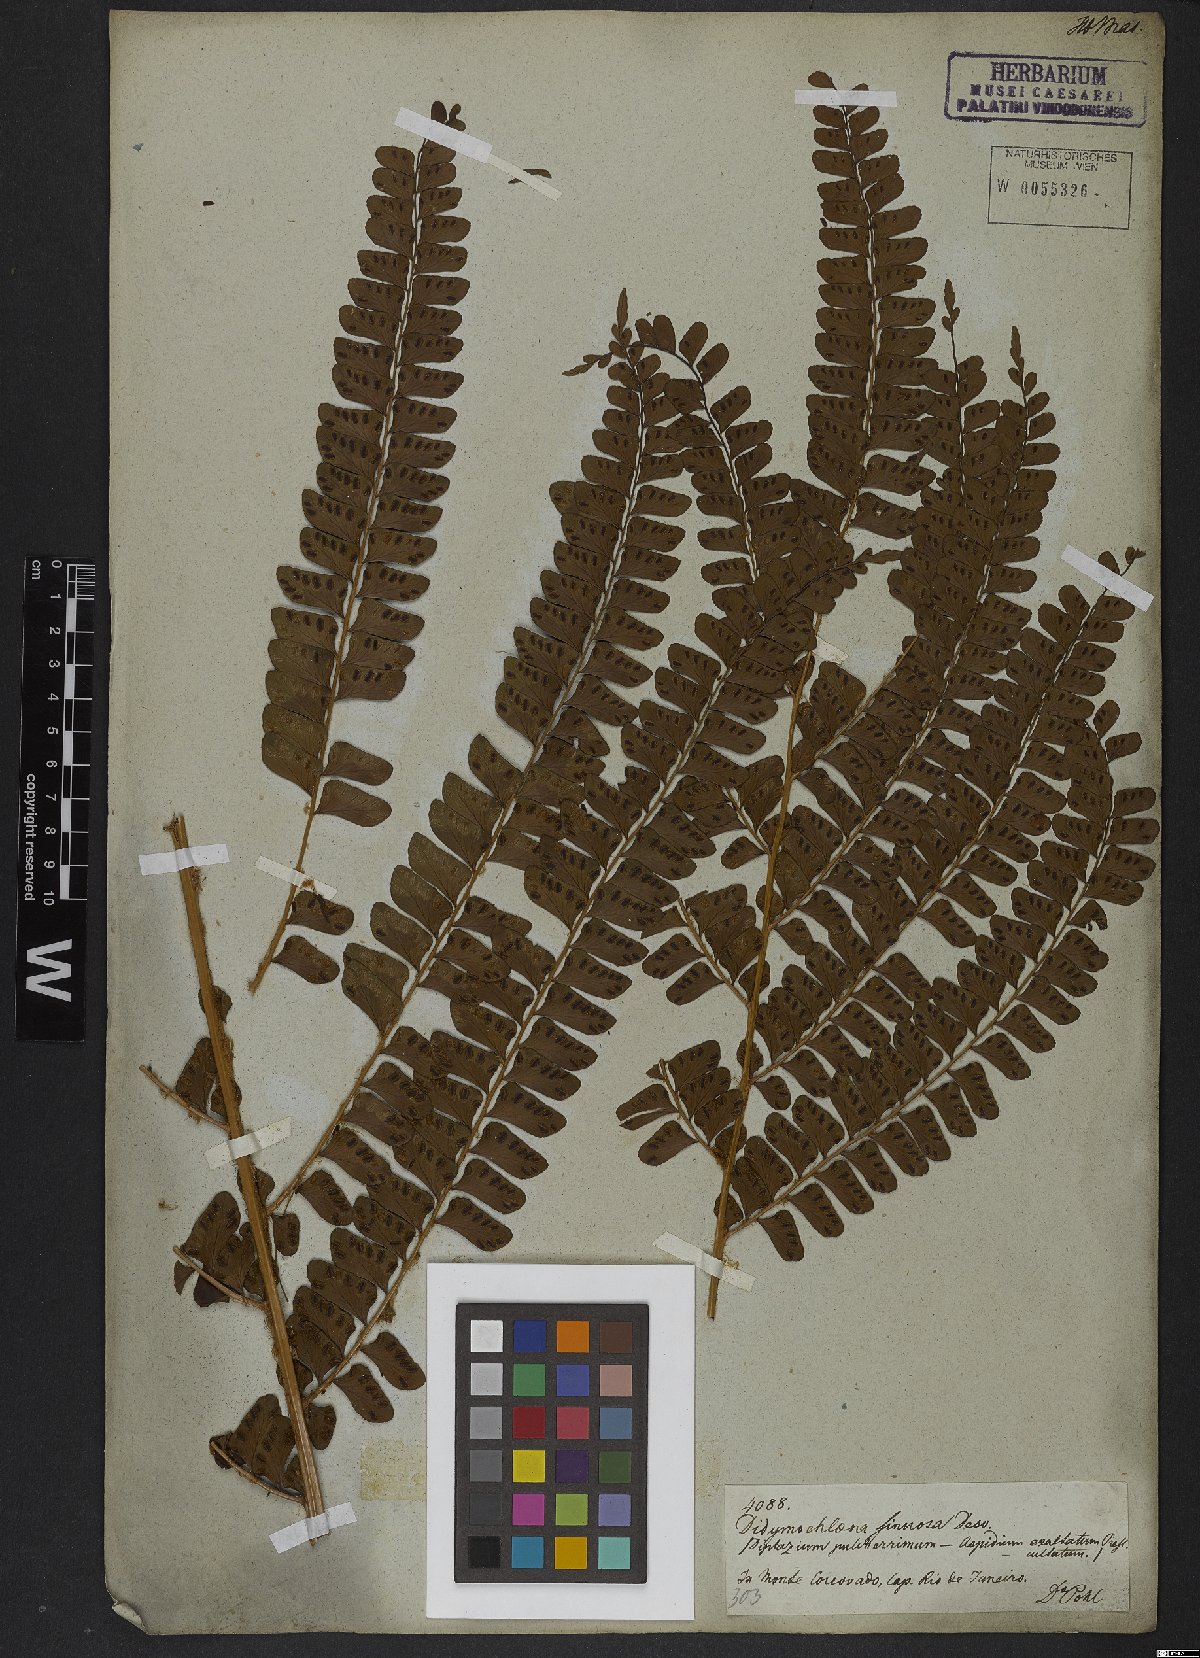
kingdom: Plantae
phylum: Tracheophyta
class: Polypodiopsida
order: Polypodiales
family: Didymochlaenaceae
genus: Didymochlaena
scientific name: Didymochlaena truncatula
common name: Mahogany fern
